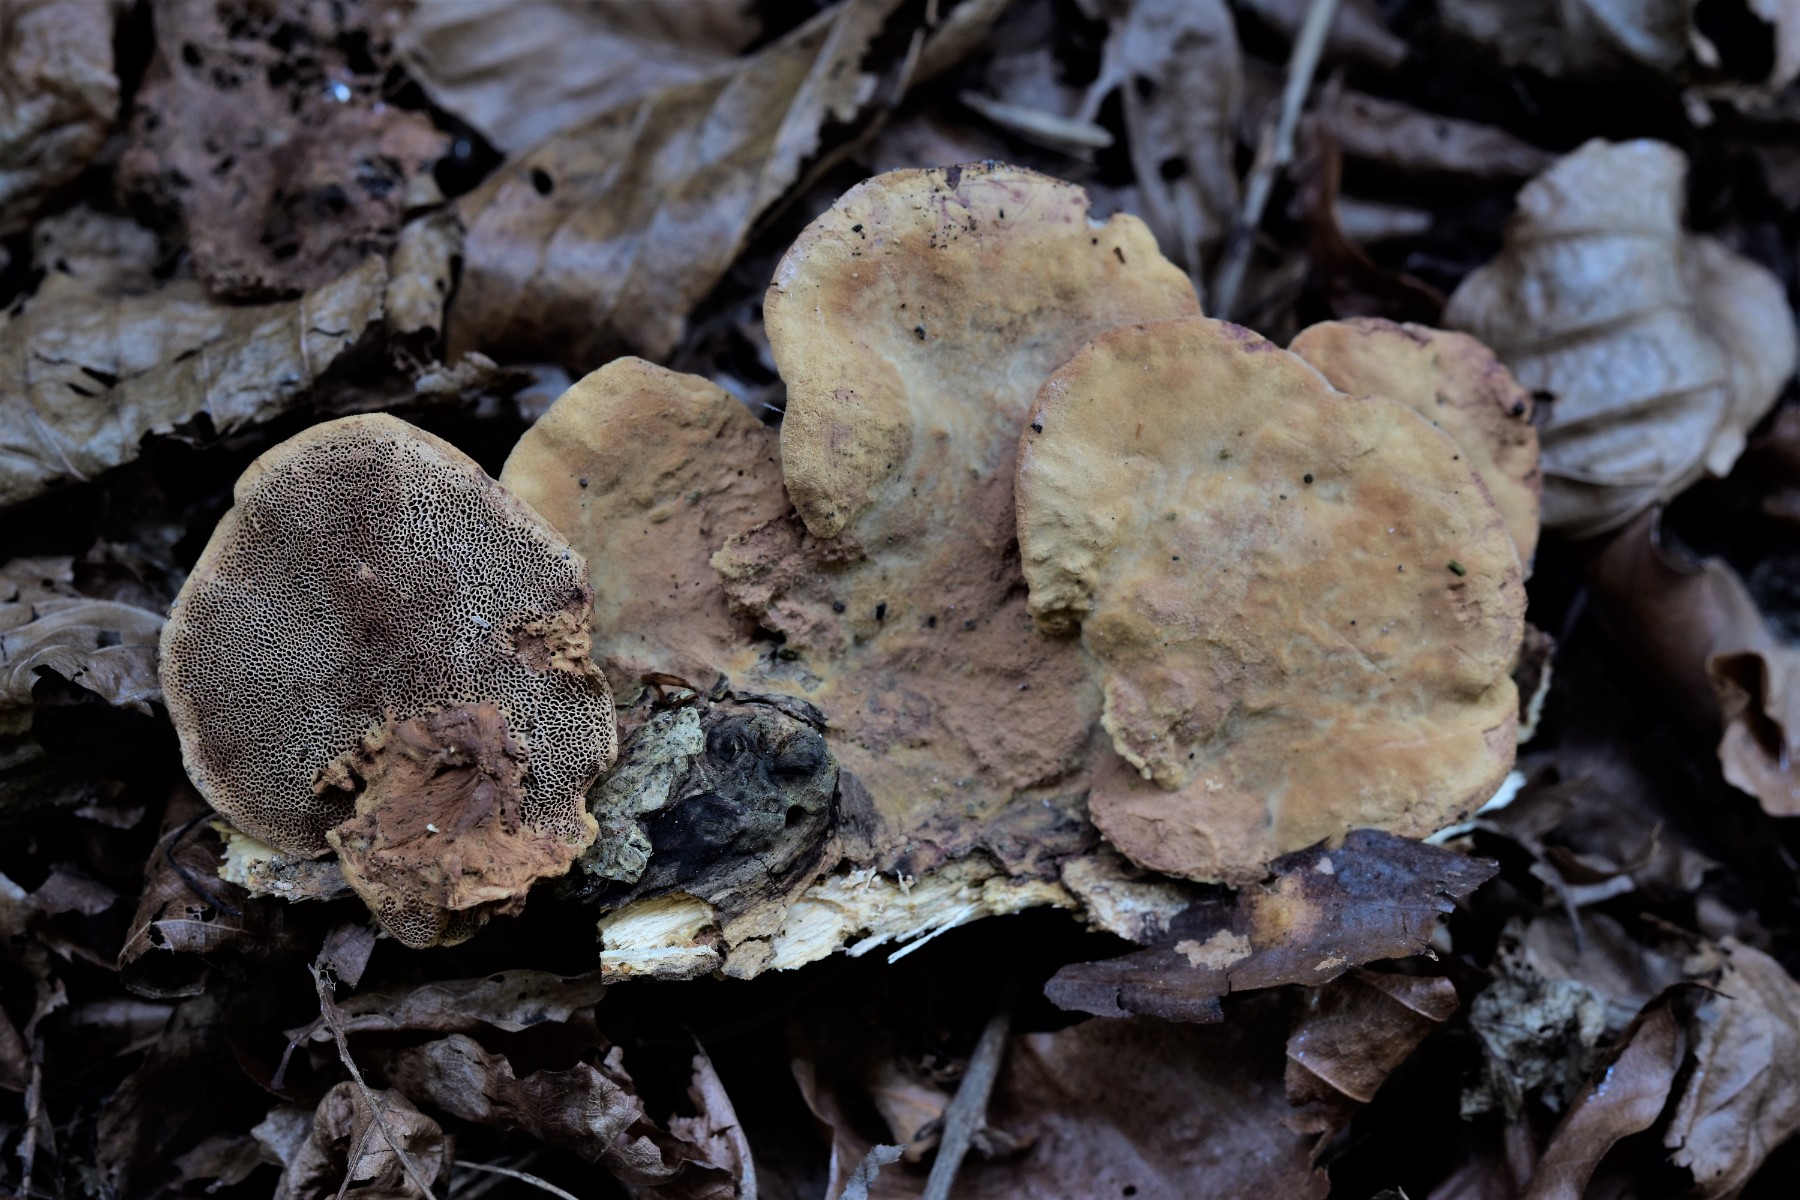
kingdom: Fungi
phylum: Basidiomycota
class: Agaricomycetes
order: Polyporales
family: Phanerochaetaceae
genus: Hapalopilus
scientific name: Hapalopilus rutilans
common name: rødlig okkerporesvamp
